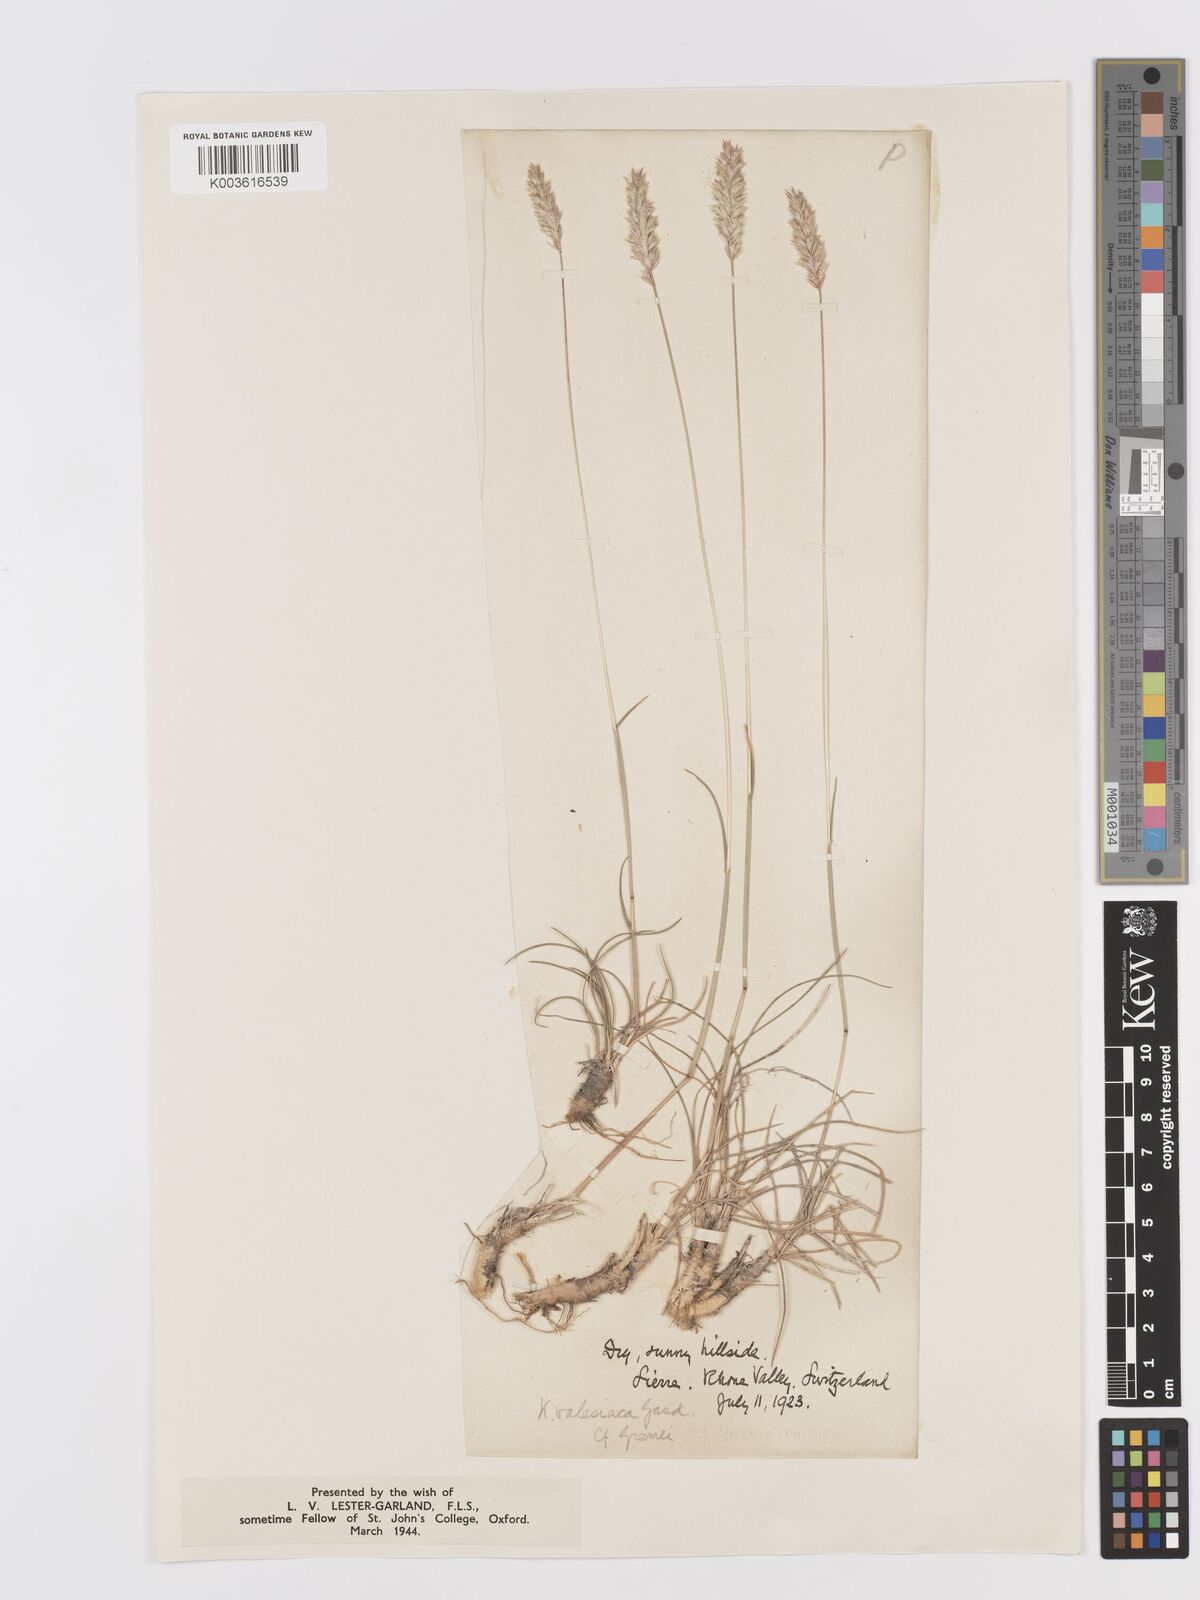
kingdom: Plantae
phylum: Tracheophyta
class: Liliopsida
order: Poales
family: Poaceae
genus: Koeleria
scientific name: Koeleria vallesiana
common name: Somerset hair-grass
